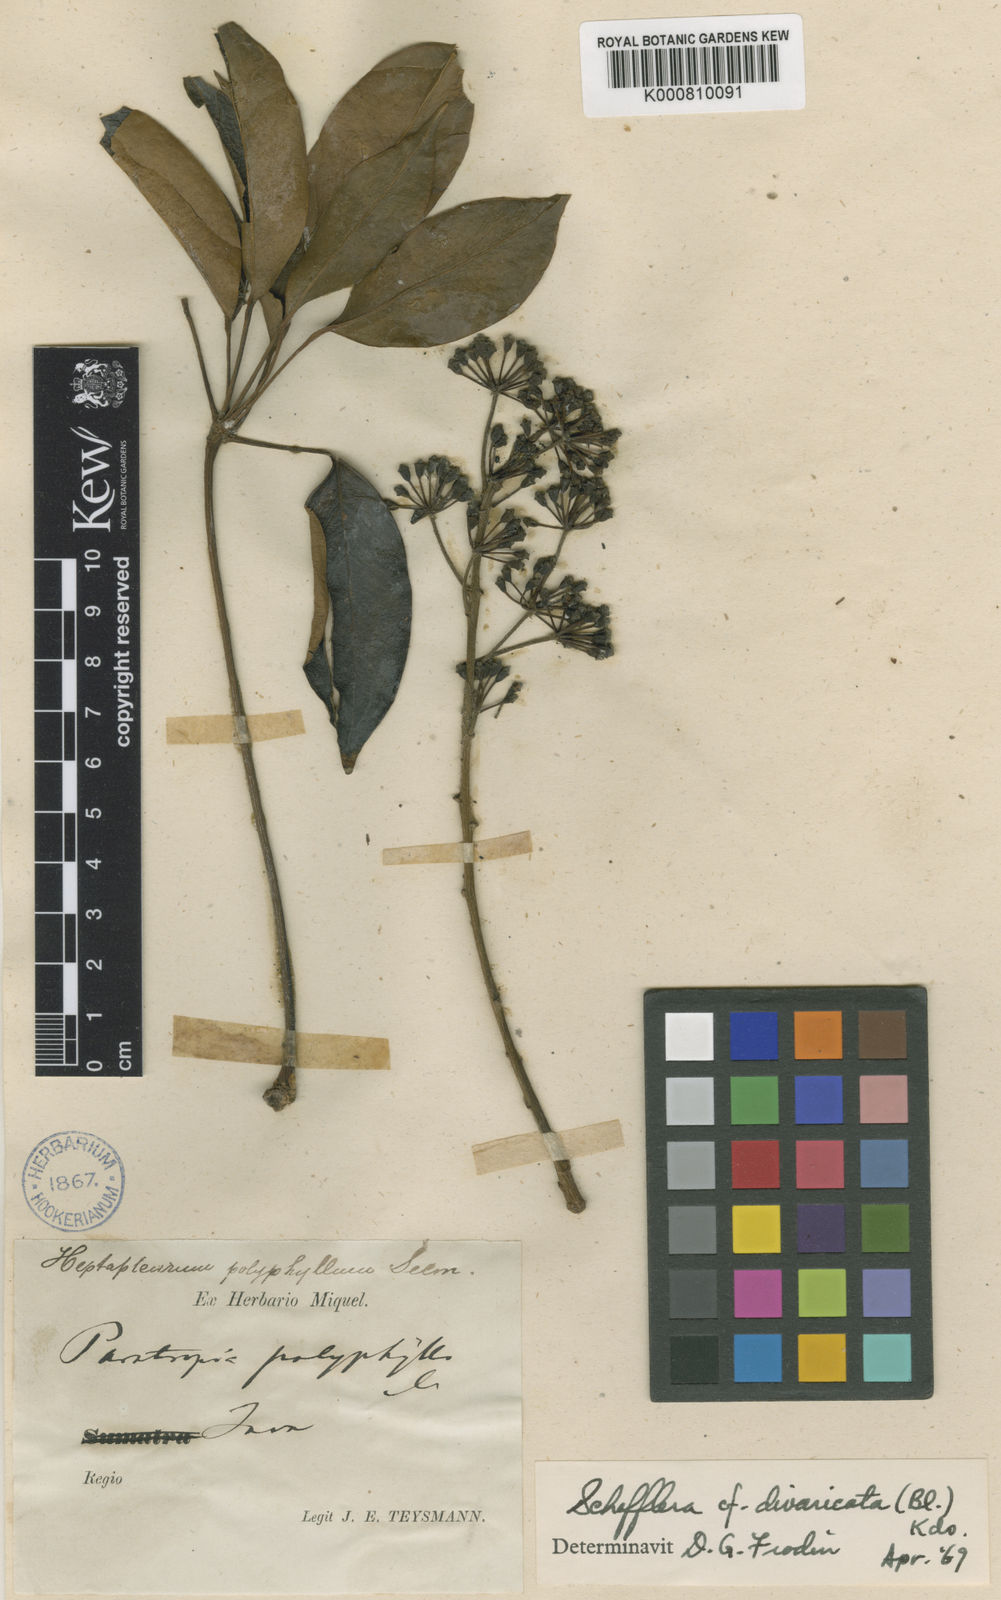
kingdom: Plantae
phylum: Tracheophyta
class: Magnoliopsida
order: Apiales
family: Araliaceae
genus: Heptapleurum
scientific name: Heptapleurum fastigiatum
